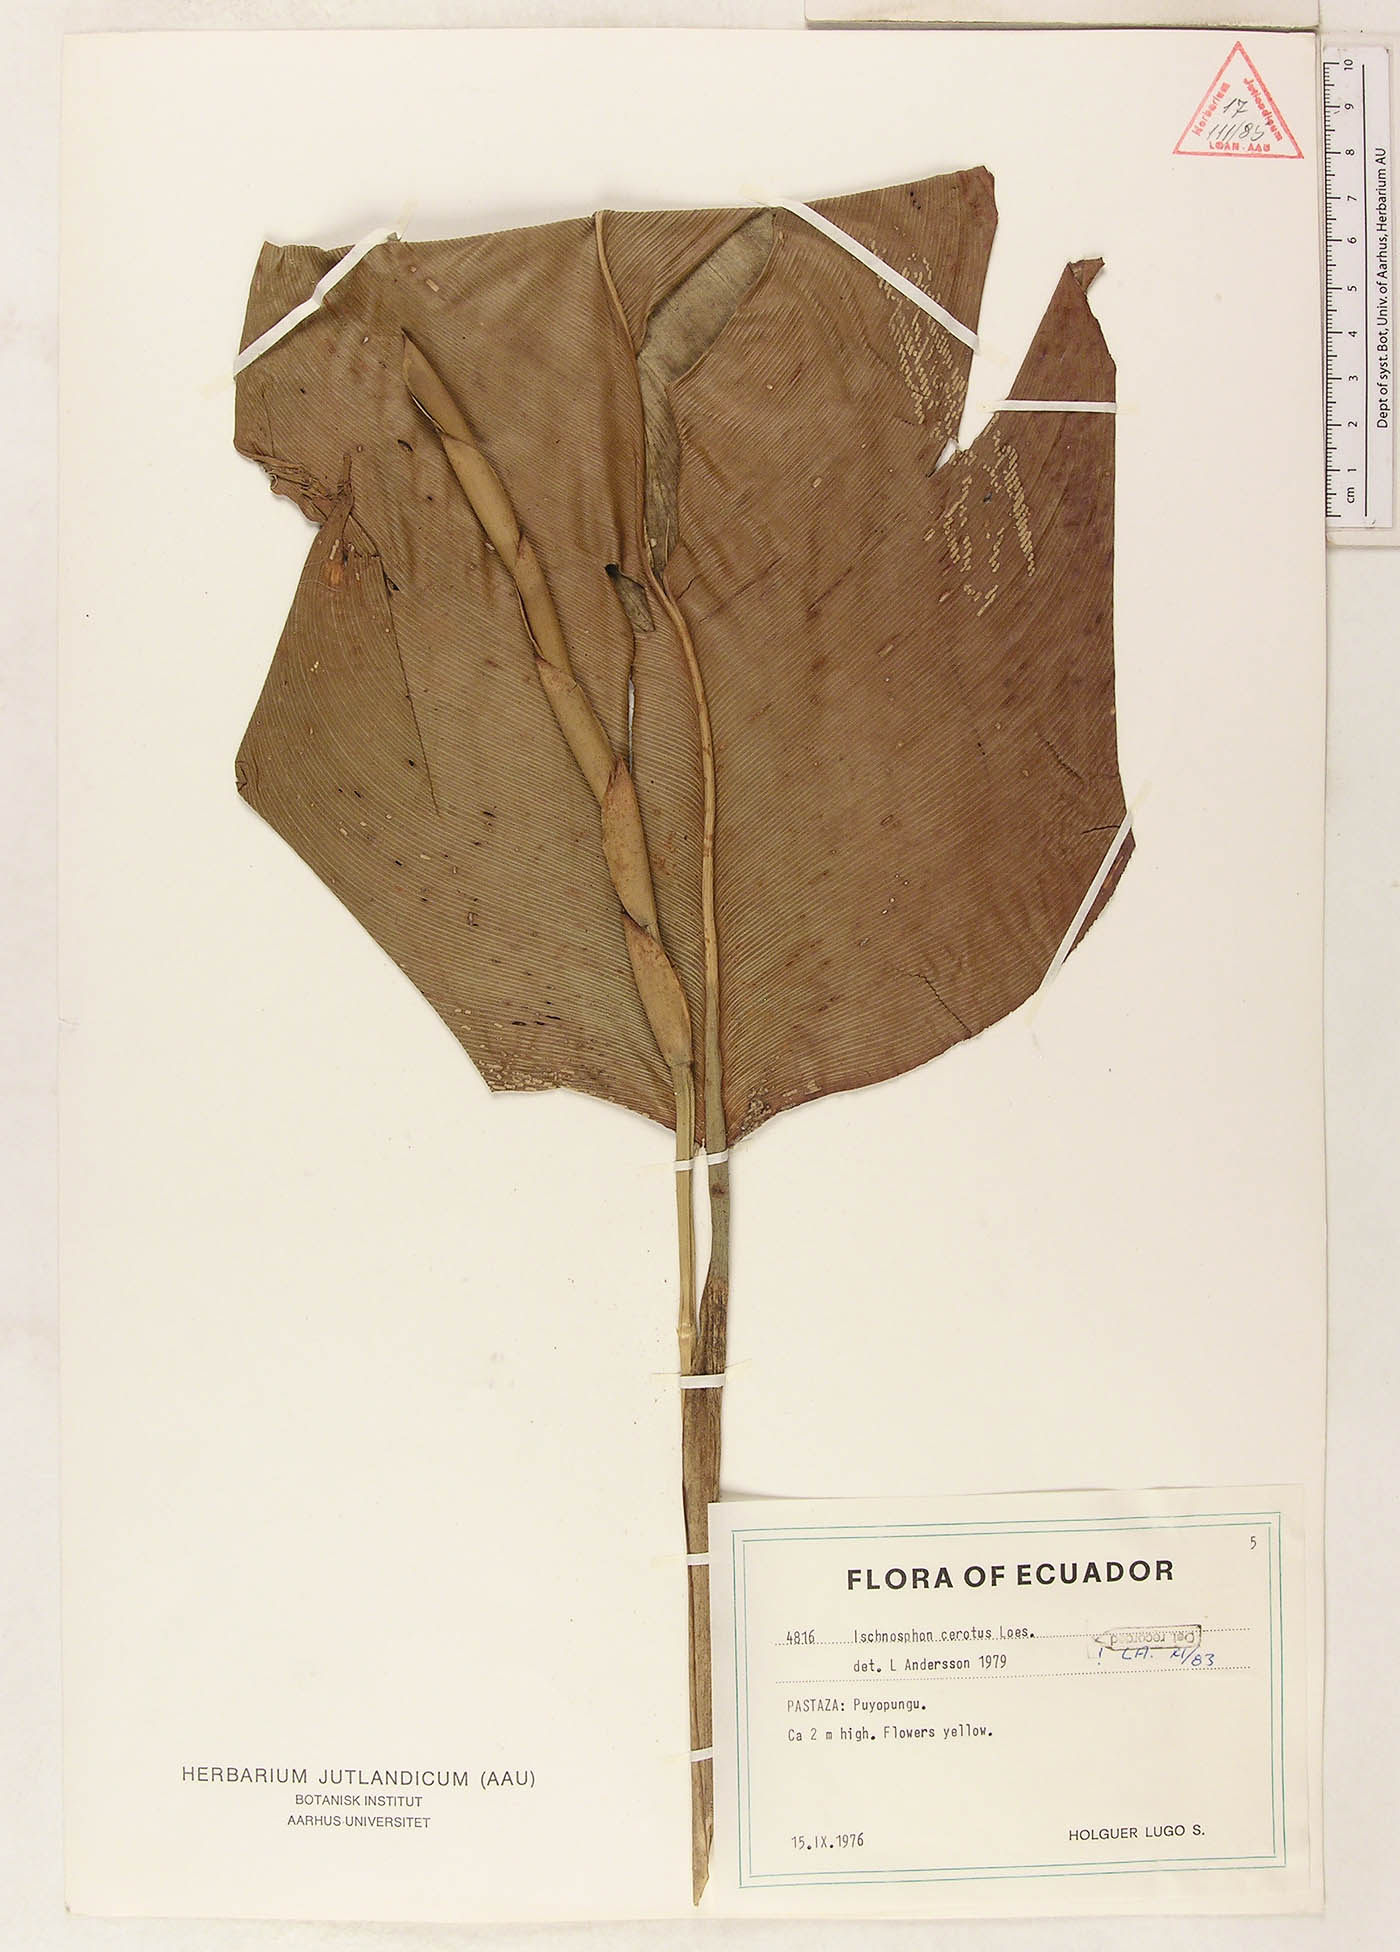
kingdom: Plantae
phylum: Tracheophyta
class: Liliopsida
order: Zingiberales
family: Marantaceae
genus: Ischnosiphon
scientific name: Ischnosiphon cerotus
